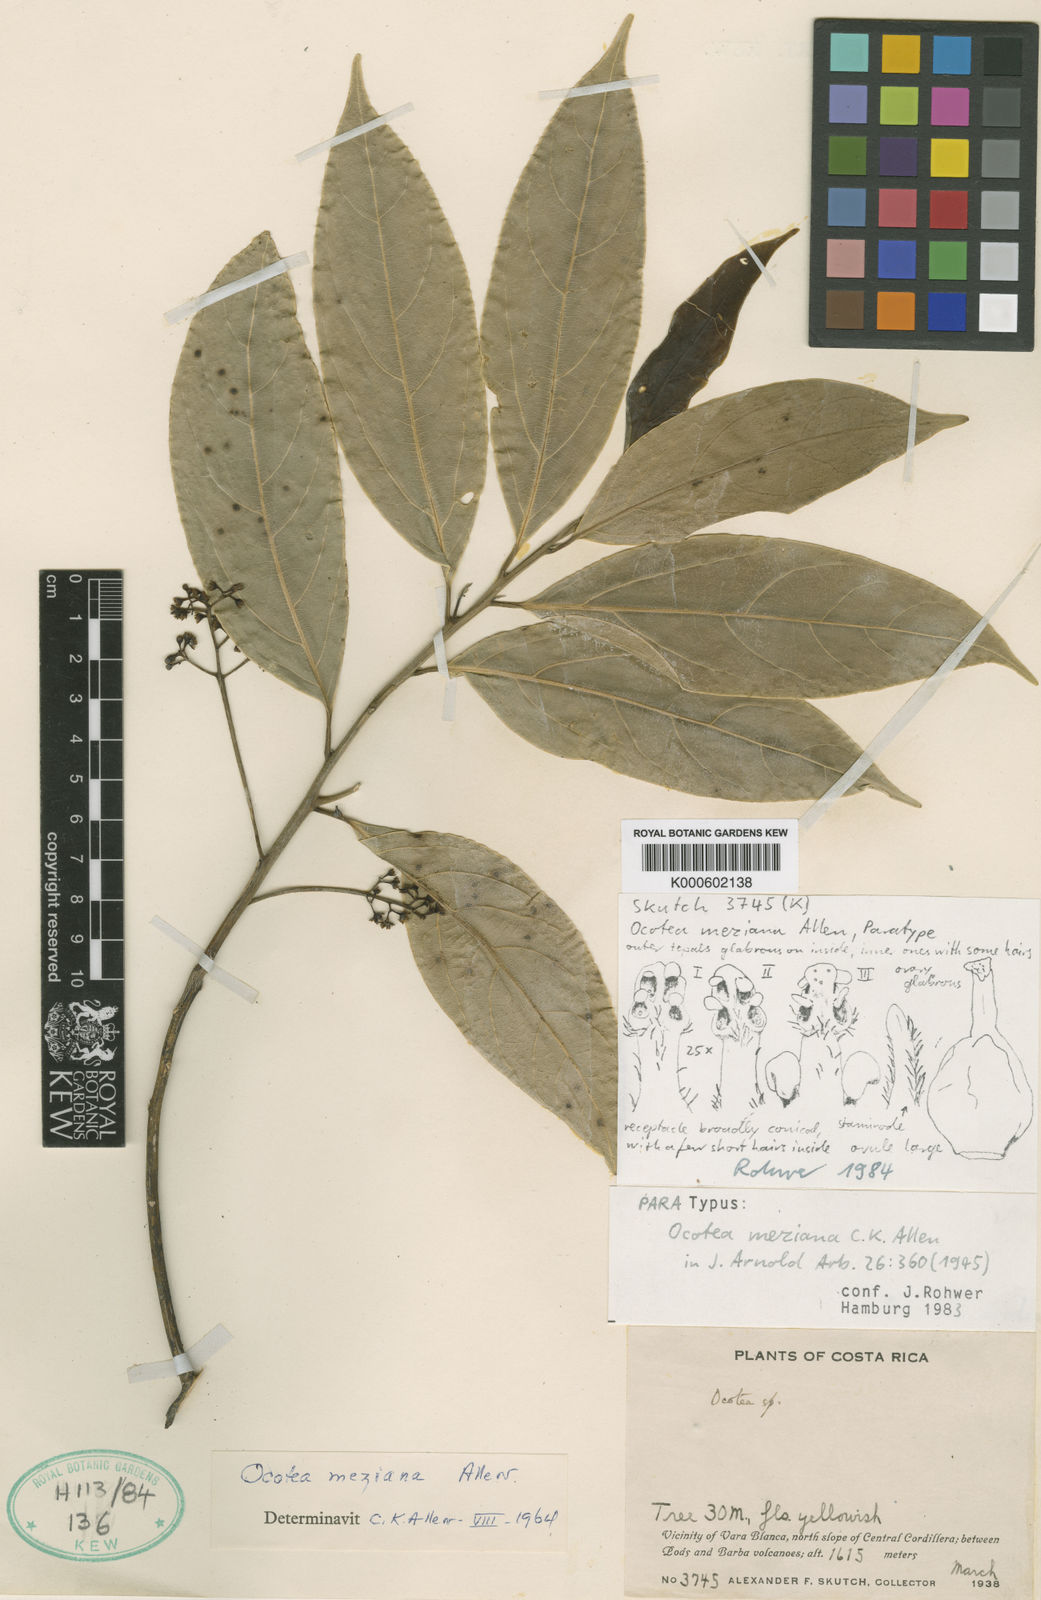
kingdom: Plantae
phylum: Tracheophyta
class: Magnoliopsida
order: Laurales
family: Lauraceae
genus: Ocotea
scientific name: Ocotea meziana
